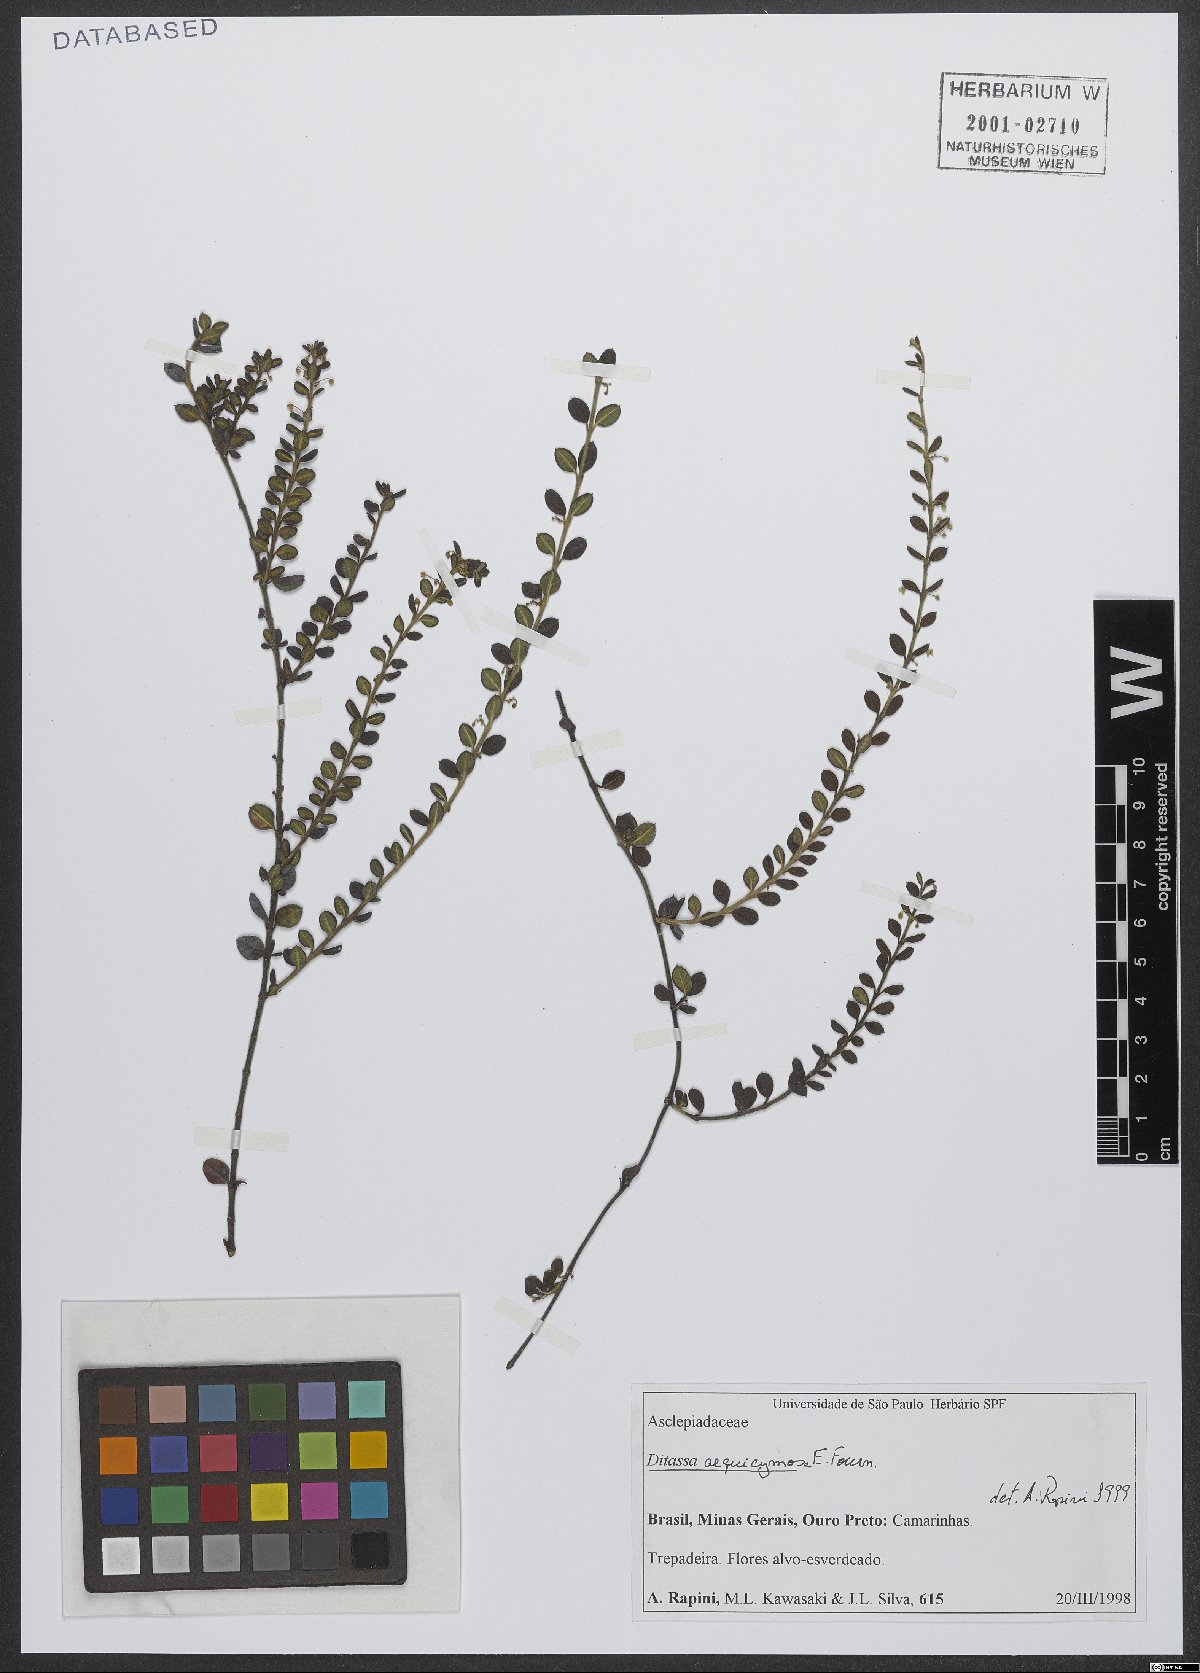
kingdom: Plantae
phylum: Tracheophyta
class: Magnoliopsida
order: Gentianales
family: Apocynaceae
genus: Ditassa
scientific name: Ditassa aequicymosa
